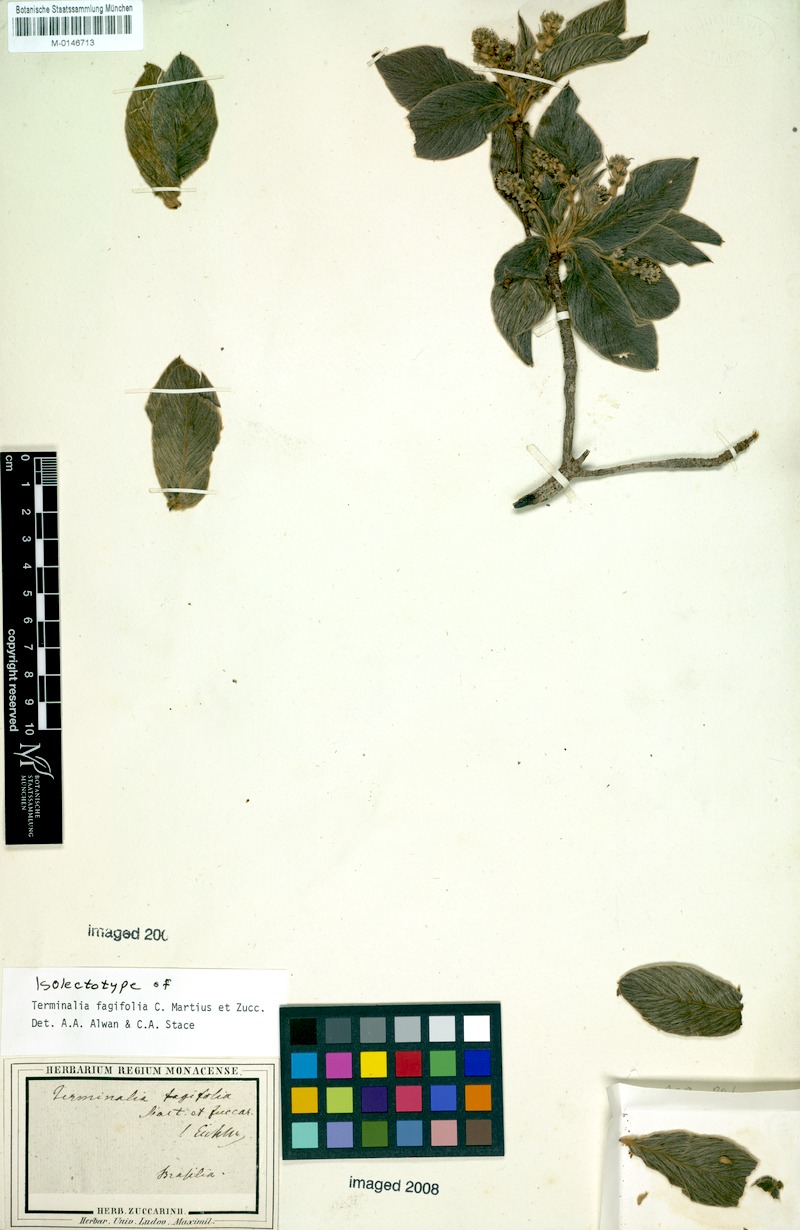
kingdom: Plantae
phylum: Tracheophyta
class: Magnoliopsida
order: Myrtales
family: Combretaceae
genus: Terminalia
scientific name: Terminalia fagifolia
